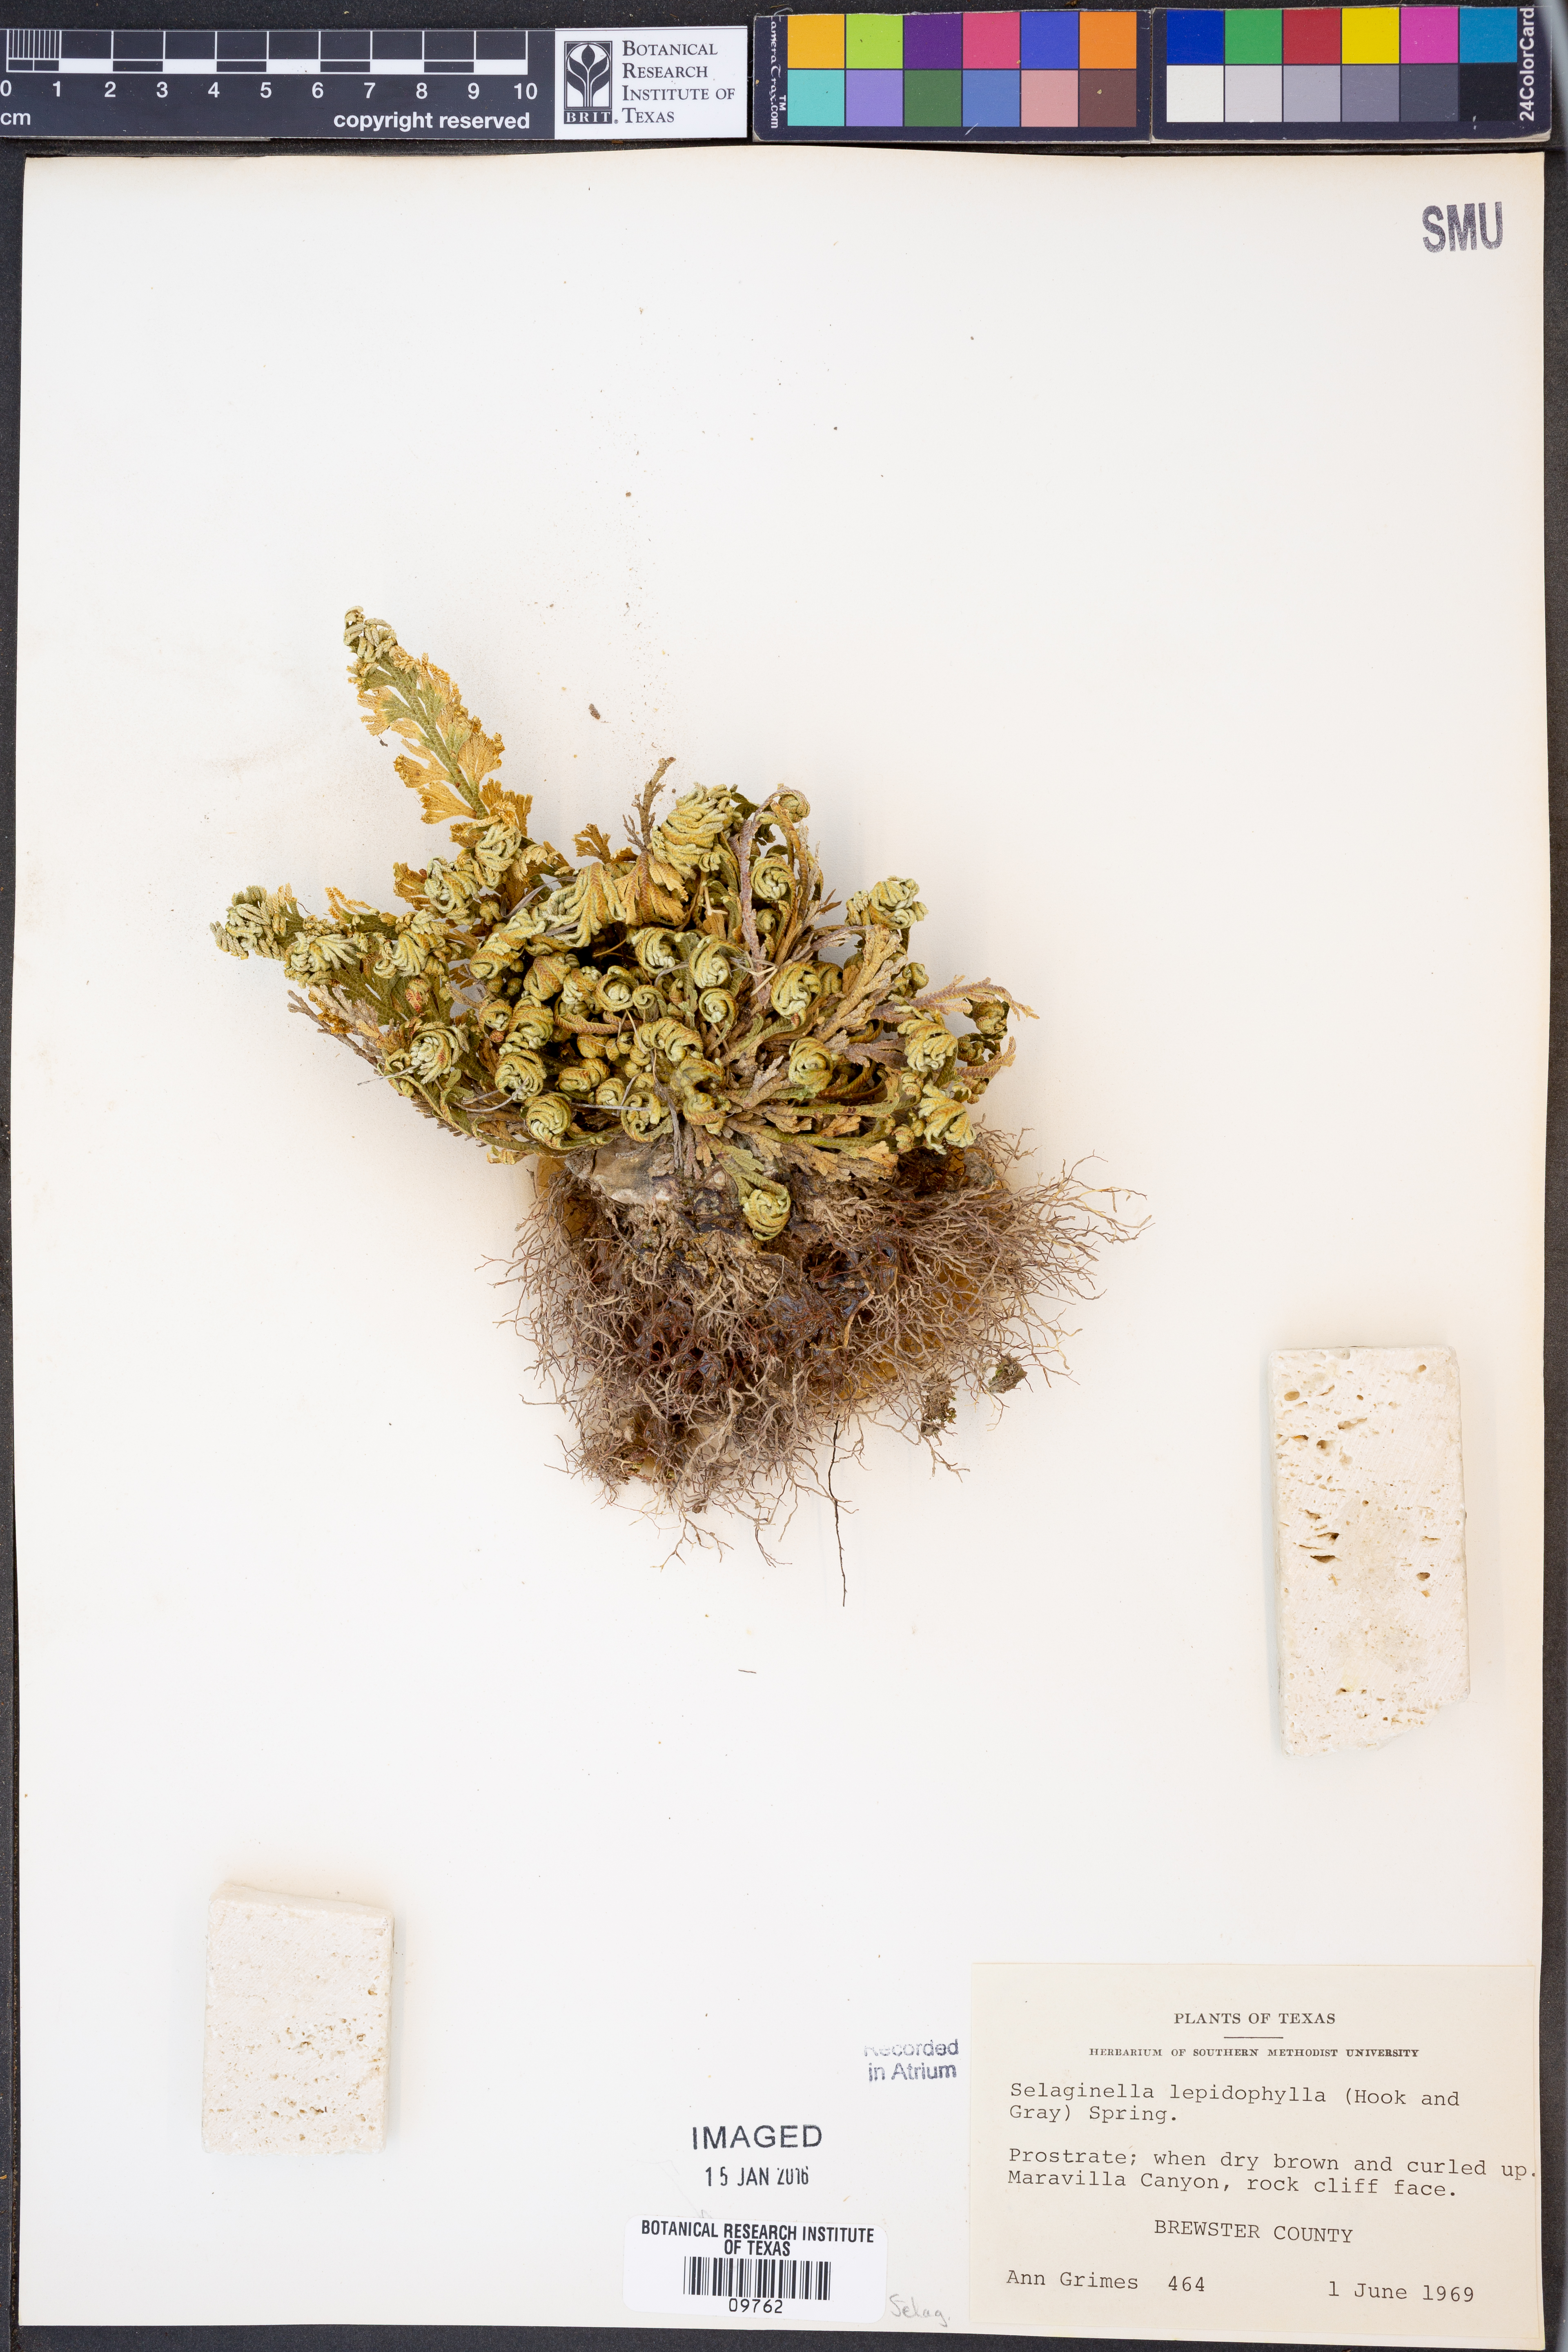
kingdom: Plantae
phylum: Tracheophyta
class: Lycopodiopsida
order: Selaginellales
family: Selaginellaceae
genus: Selaginella
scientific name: Selaginella lepidophylla
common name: Rose-of-jericho
